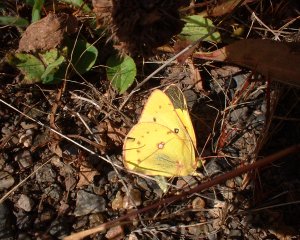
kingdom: Animalia
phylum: Arthropoda
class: Insecta
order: Lepidoptera
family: Pieridae
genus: Colias
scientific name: Colias eurytheme
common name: Orange Sulphur
